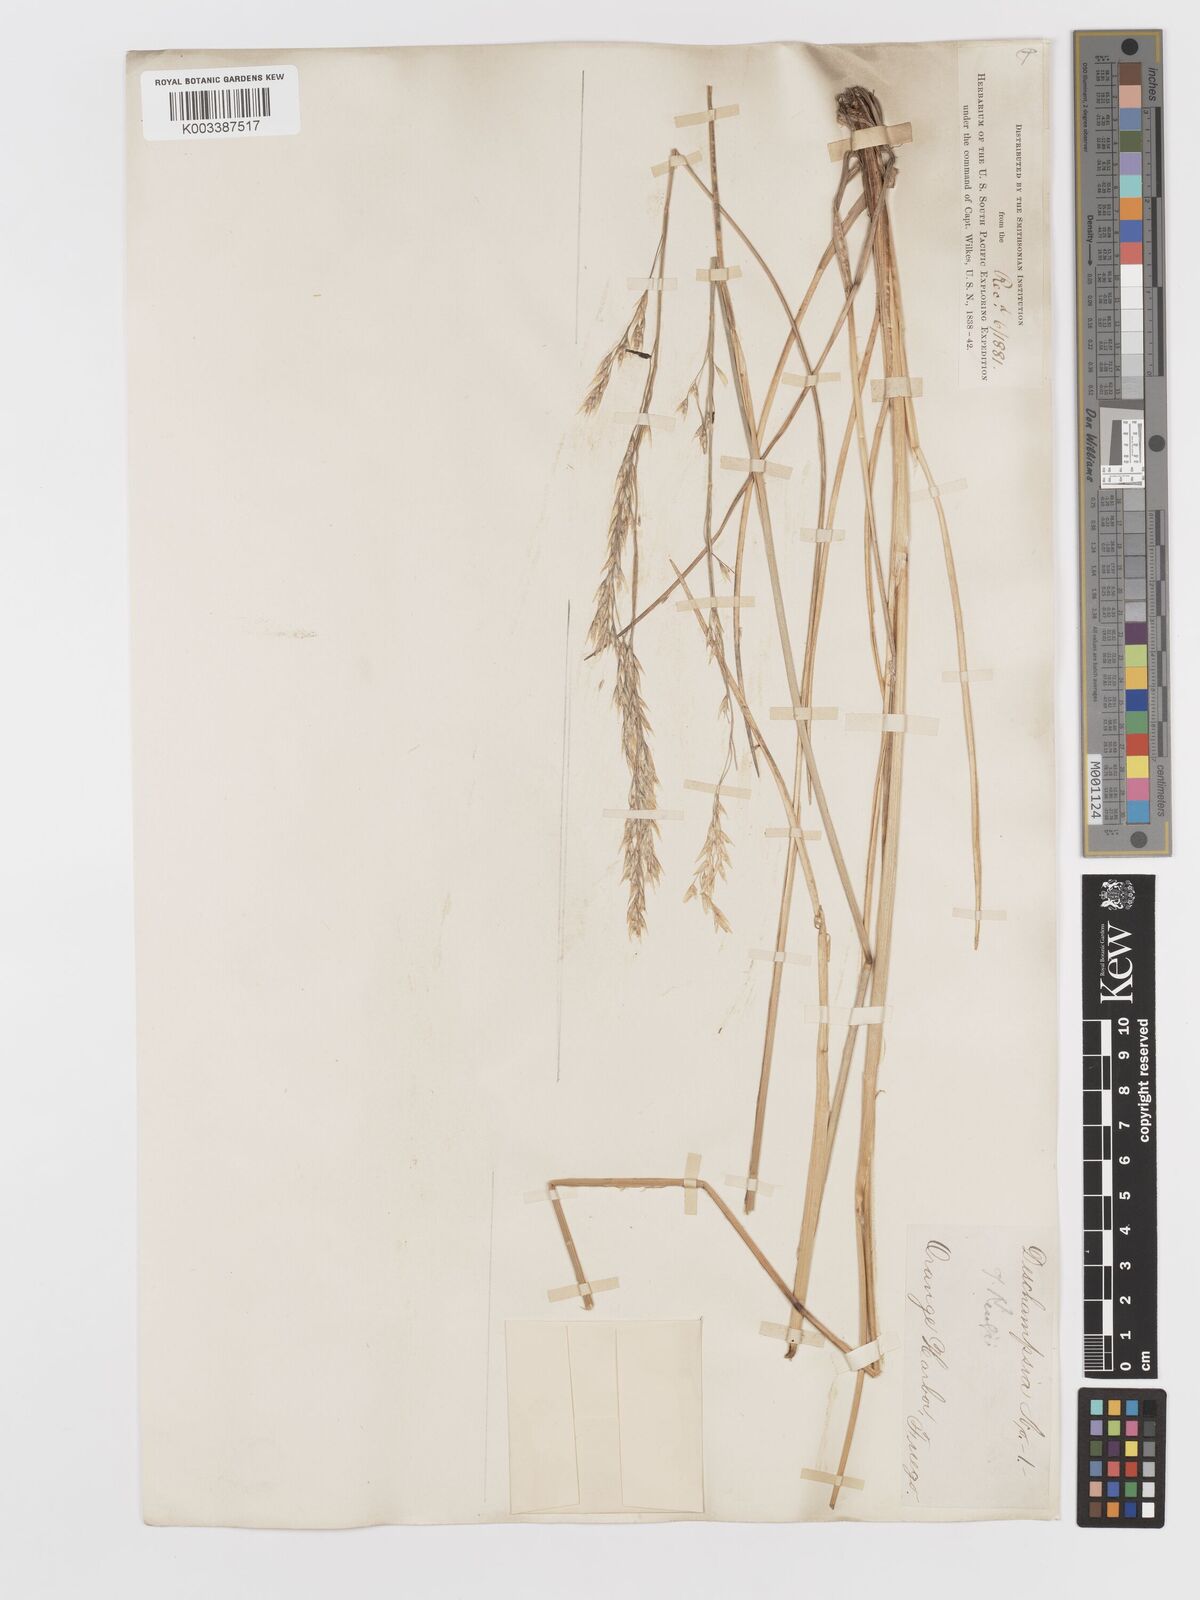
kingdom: Plantae
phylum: Tracheophyta
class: Liliopsida
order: Poales
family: Poaceae
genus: Deschampsia
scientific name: Deschampsia kingii
